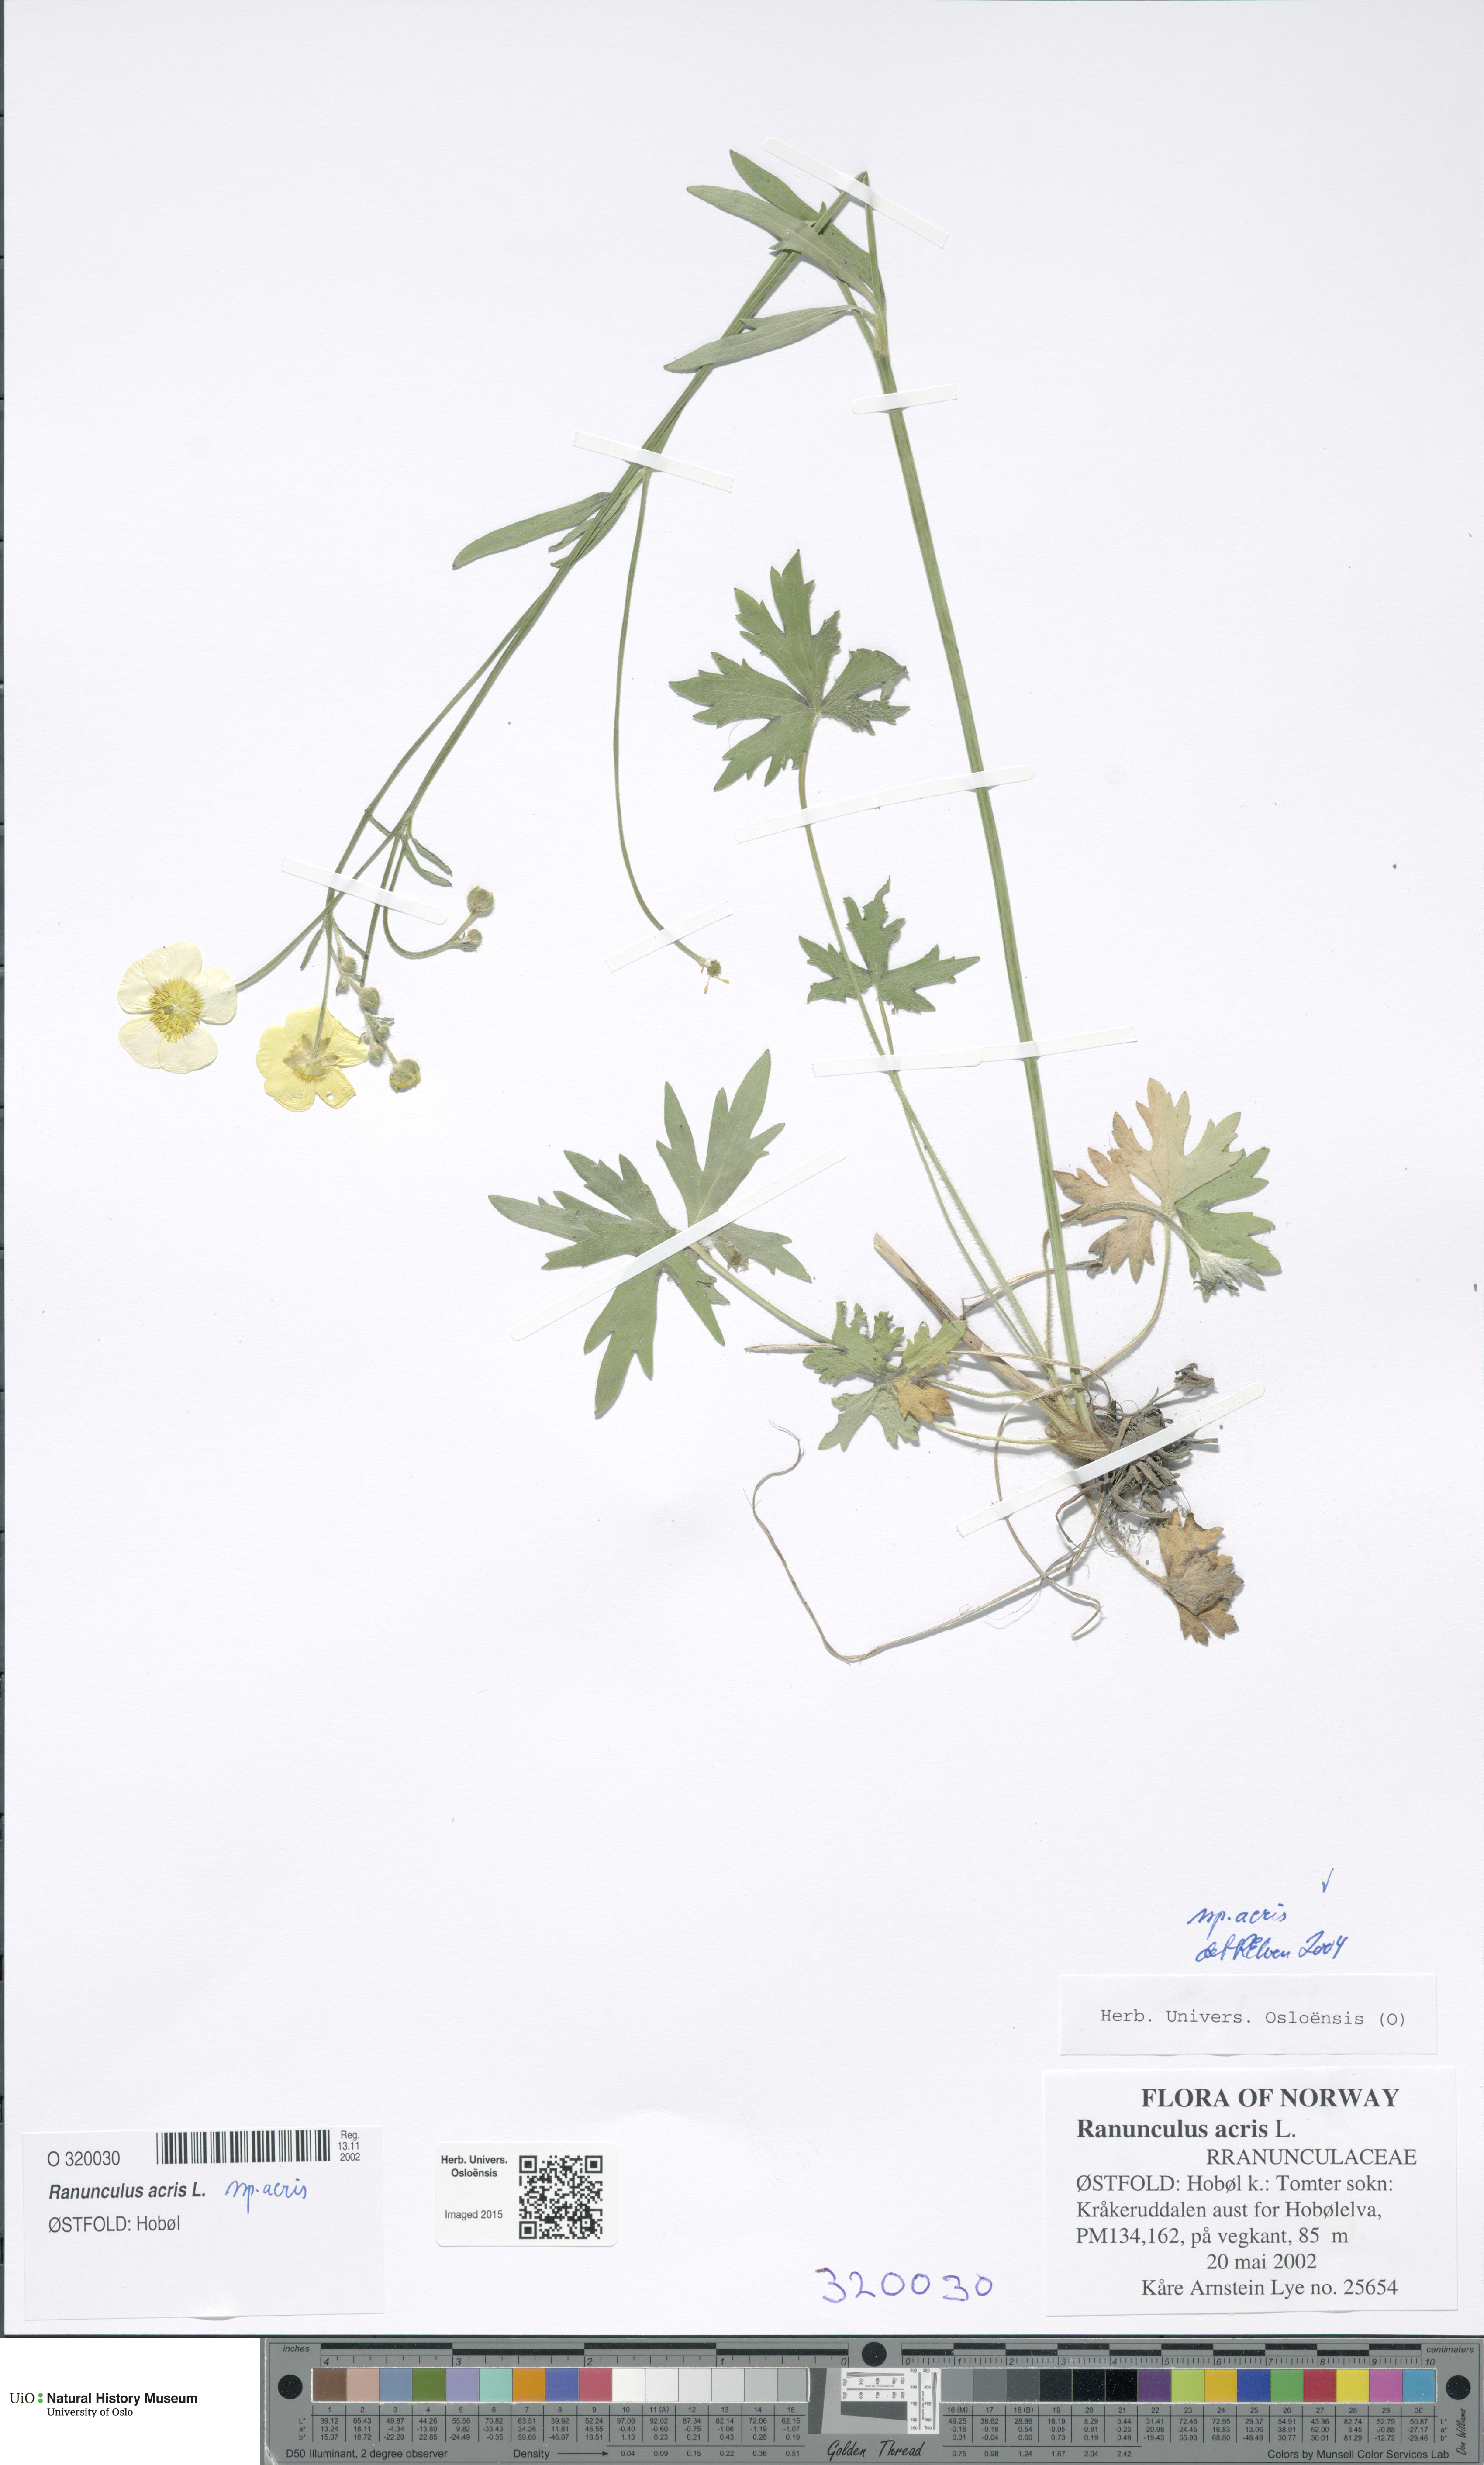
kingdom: Plantae
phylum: Tracheophyta
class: Magnoliopsida
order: Ranunculales
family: Ranunculaceae
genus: Ranunculus
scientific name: Ranunculus acris
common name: Meadow buttercup
